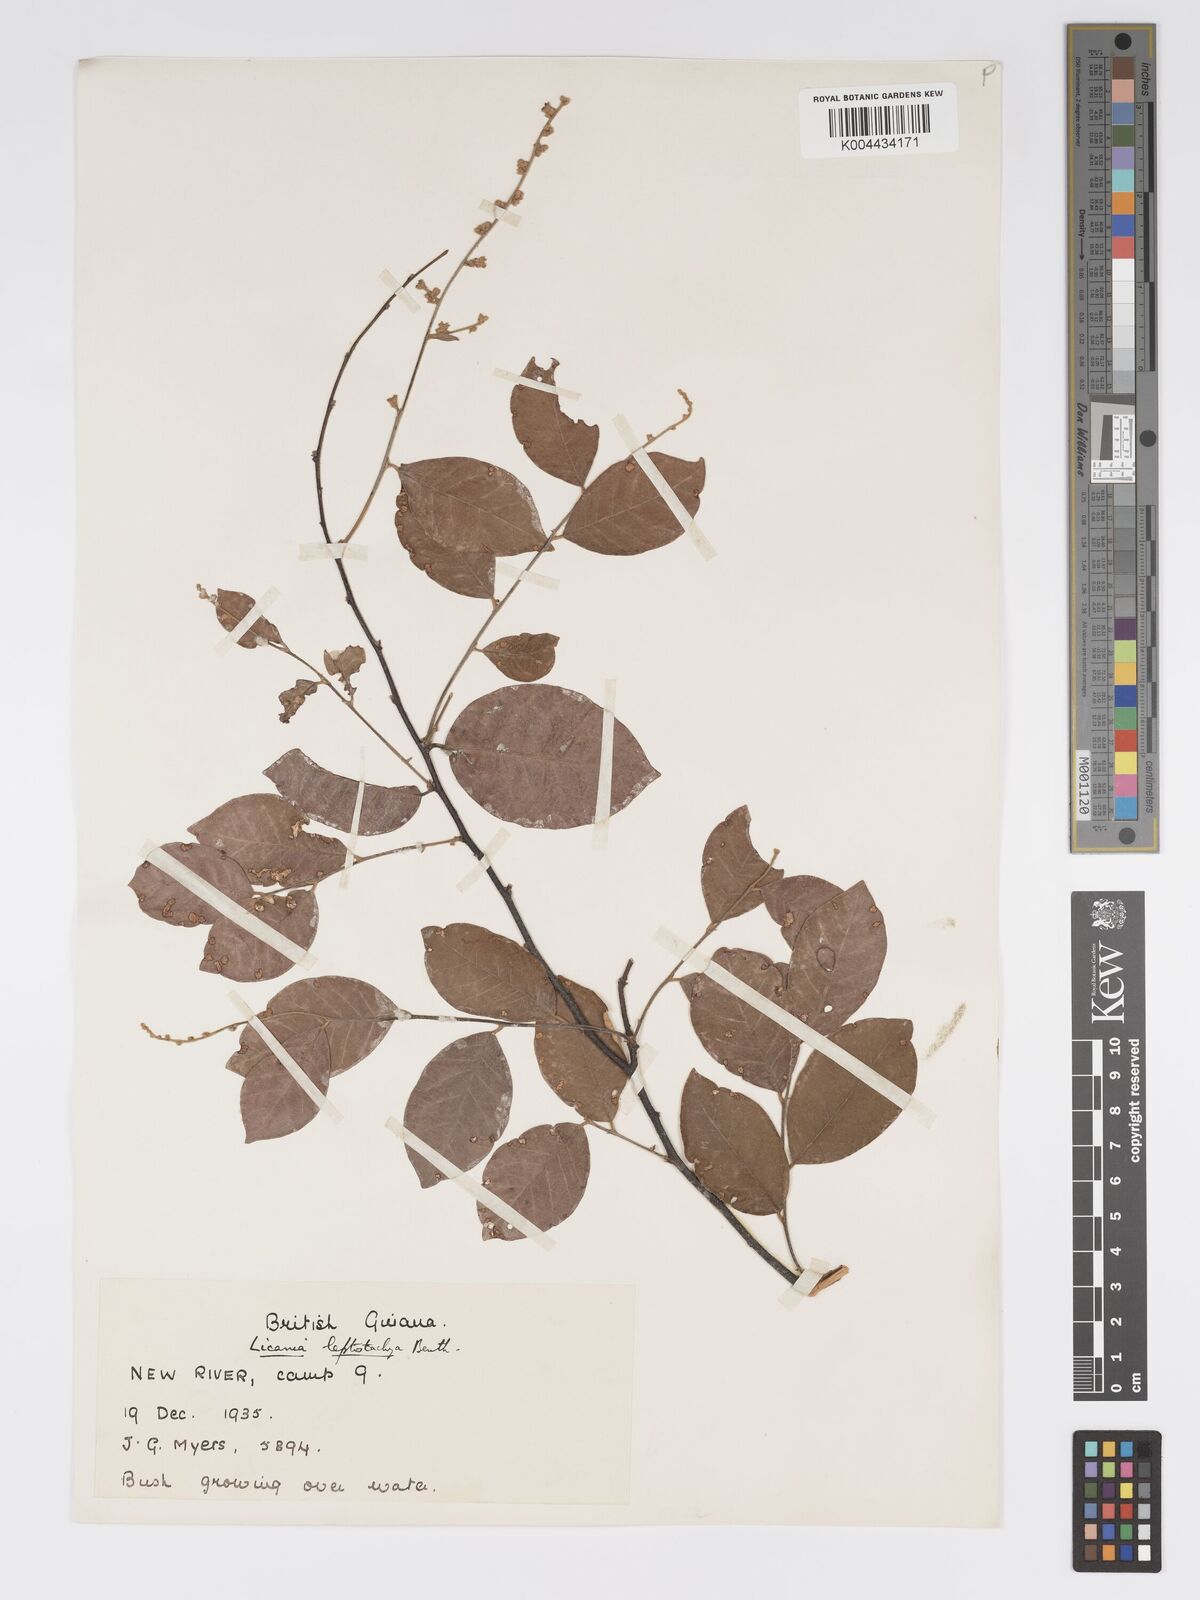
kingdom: Plantae
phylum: Tracheophyta
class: Magnoliopsida
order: Malpighiales
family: Chrysobalanaceae
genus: Licania
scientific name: Licania leptostachya
